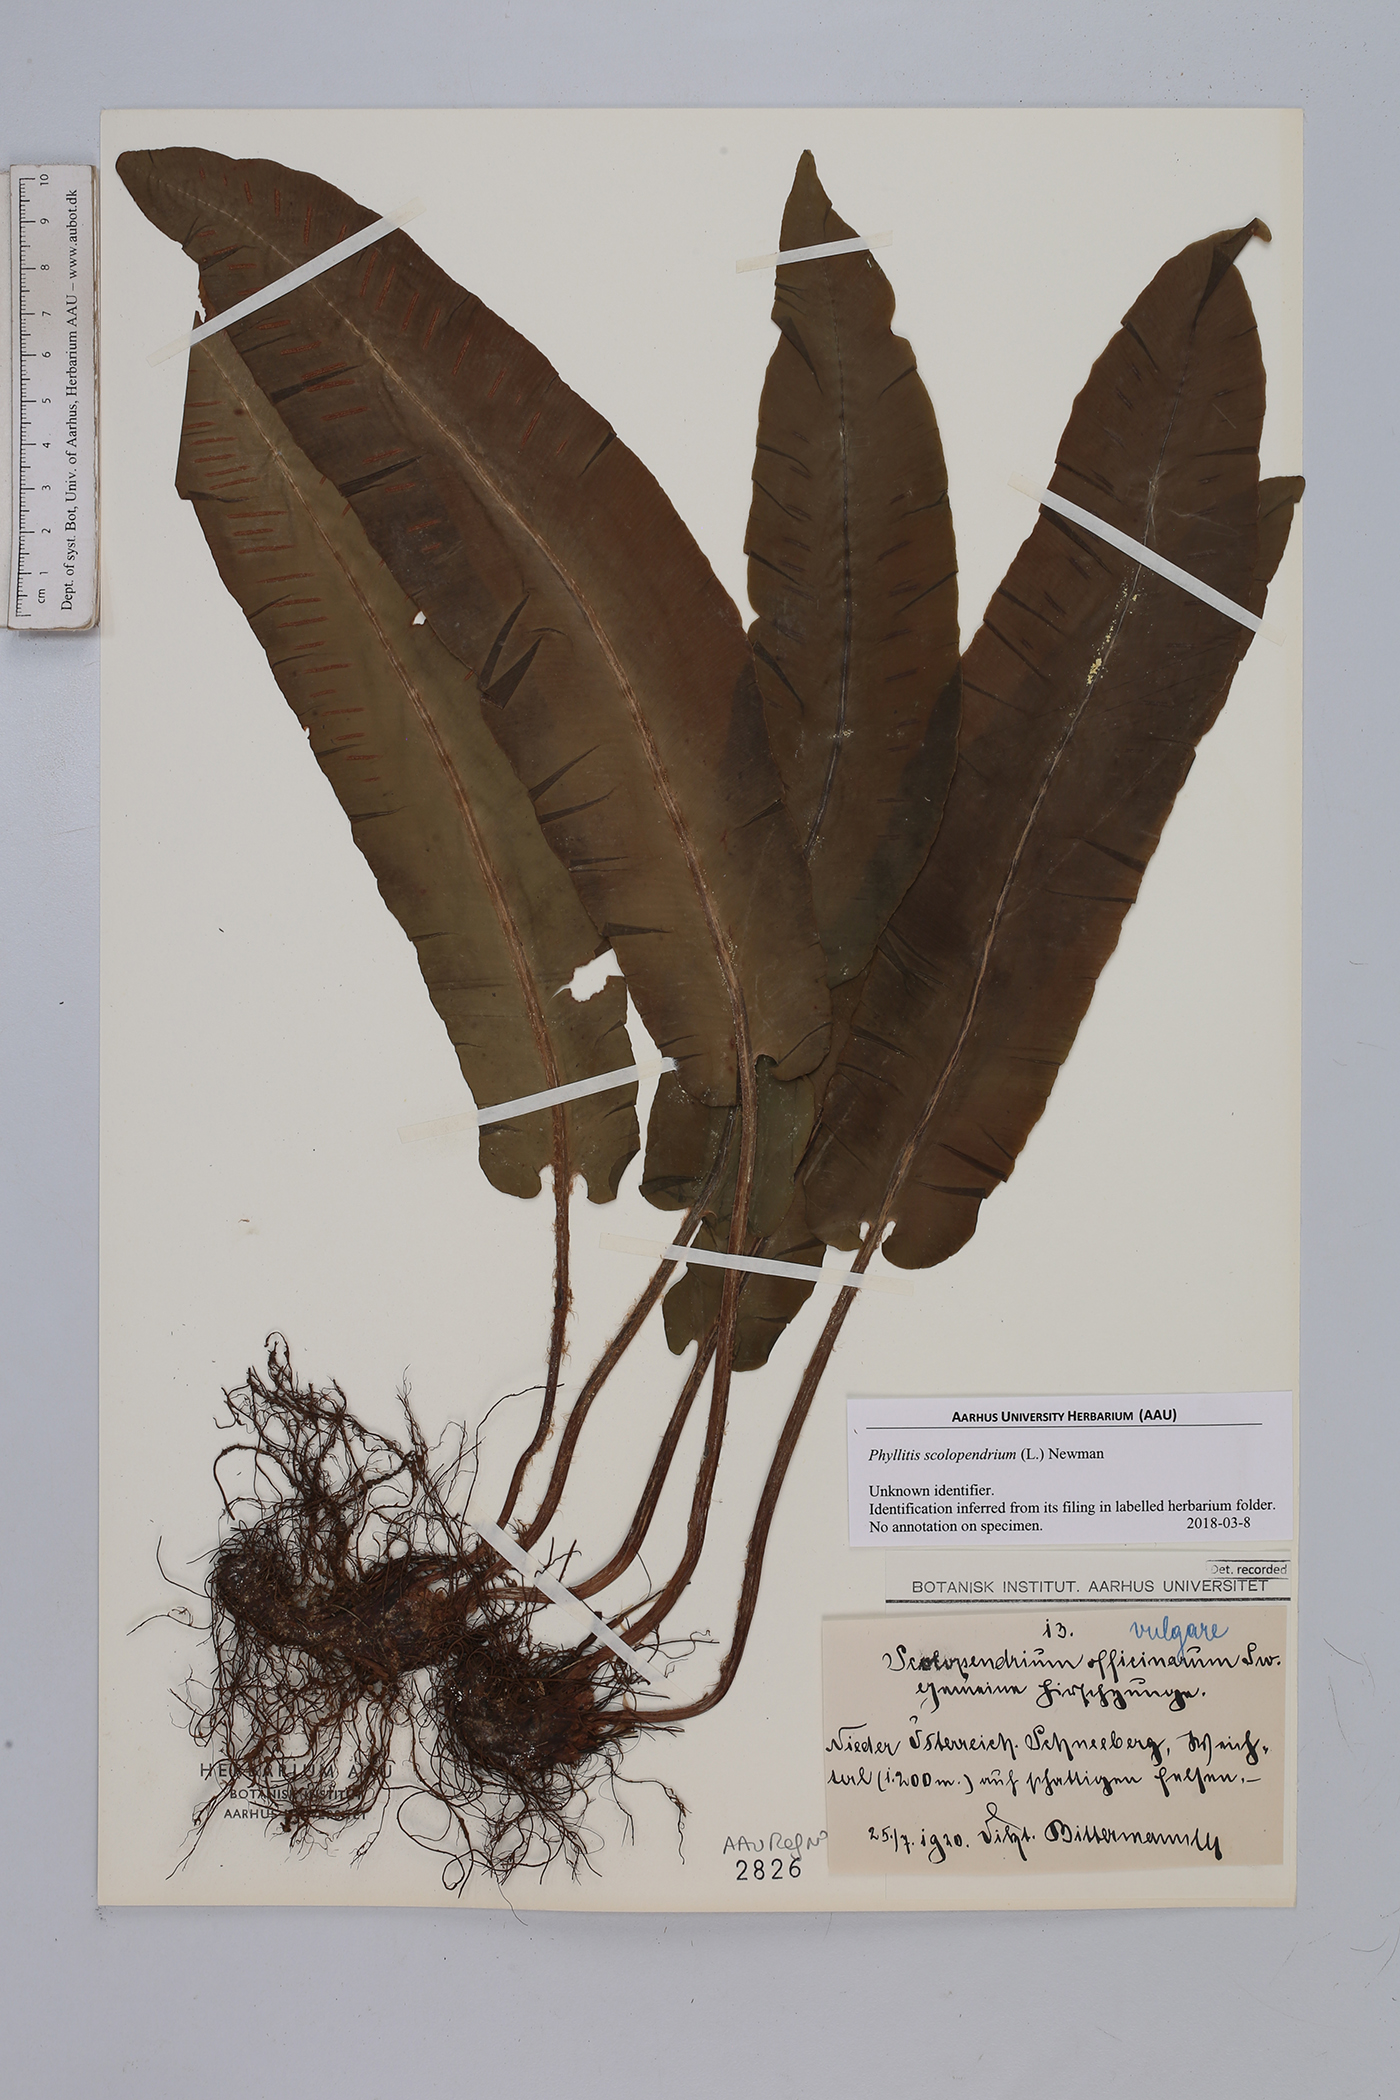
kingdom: Plantae
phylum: Tracheophyta
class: Polypodiopsida
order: Polypodiales
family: Aspleniaceae
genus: Asplenium
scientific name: Asplenium scolopendrium
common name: Hart's-tongue fern
